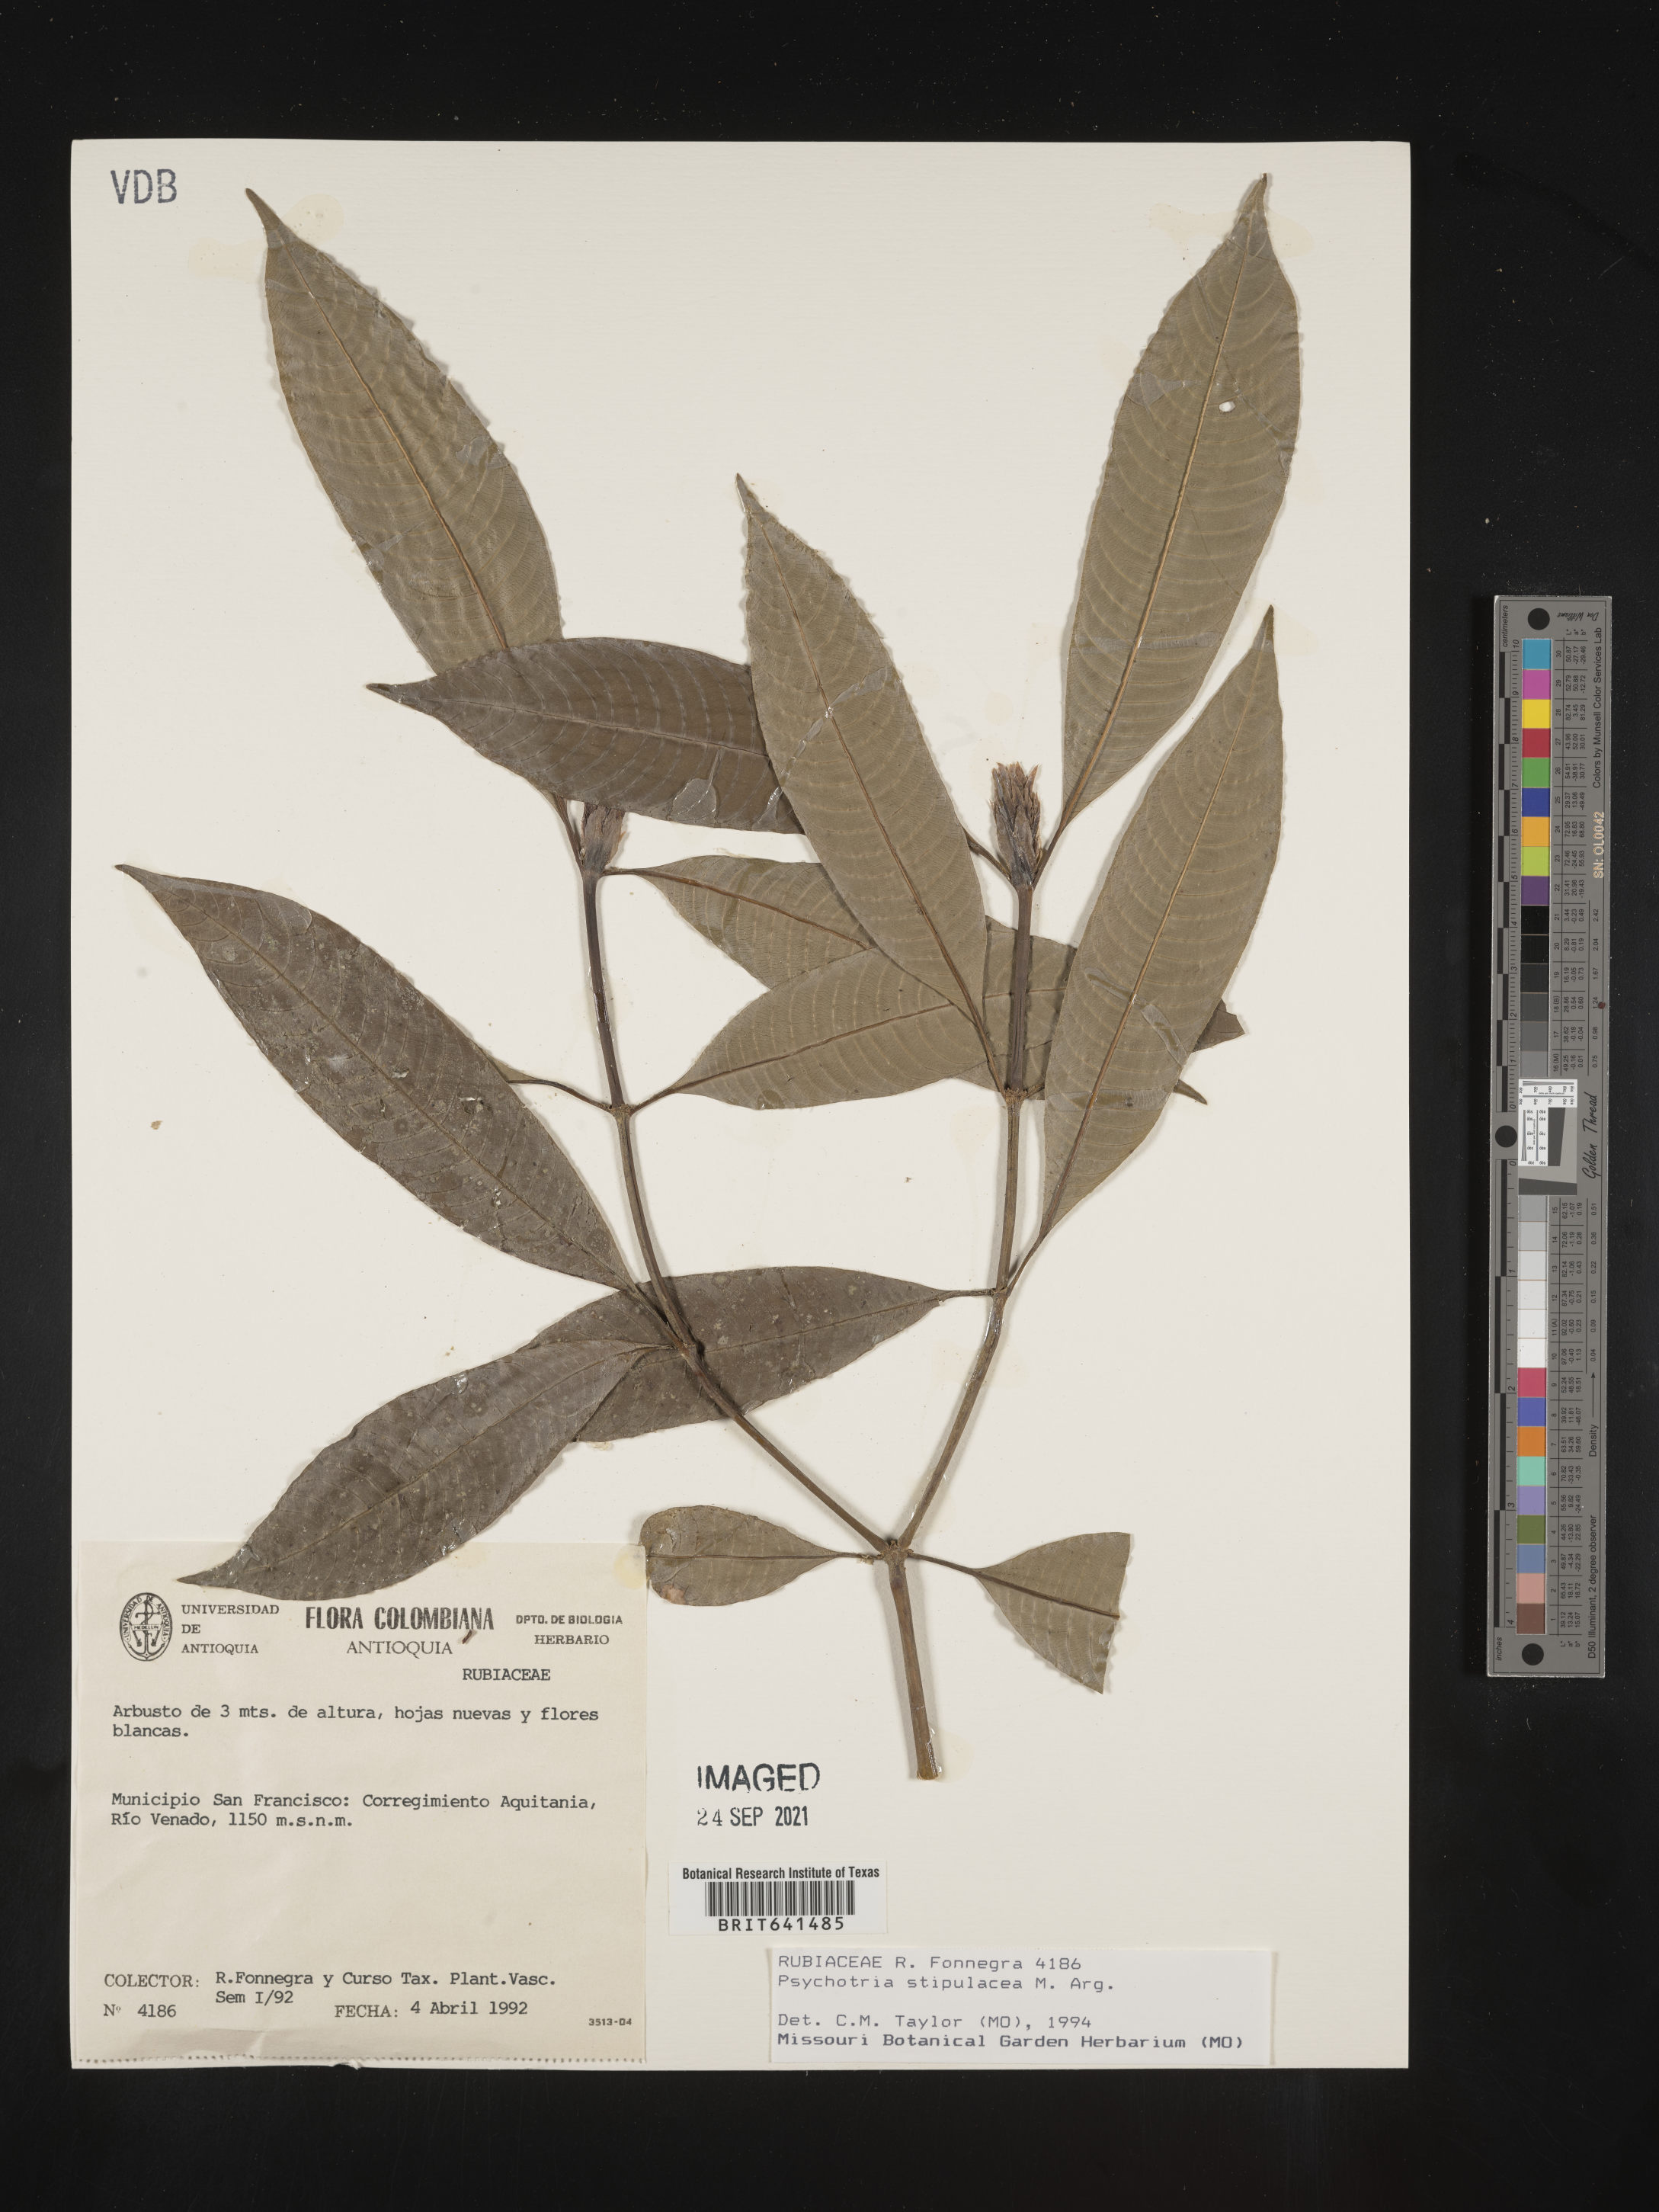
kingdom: Plantae
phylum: Tracheophyta
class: Magnoliopsida
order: Gentianales
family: Rubiaceae
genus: Psychotria
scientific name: Psychotria
